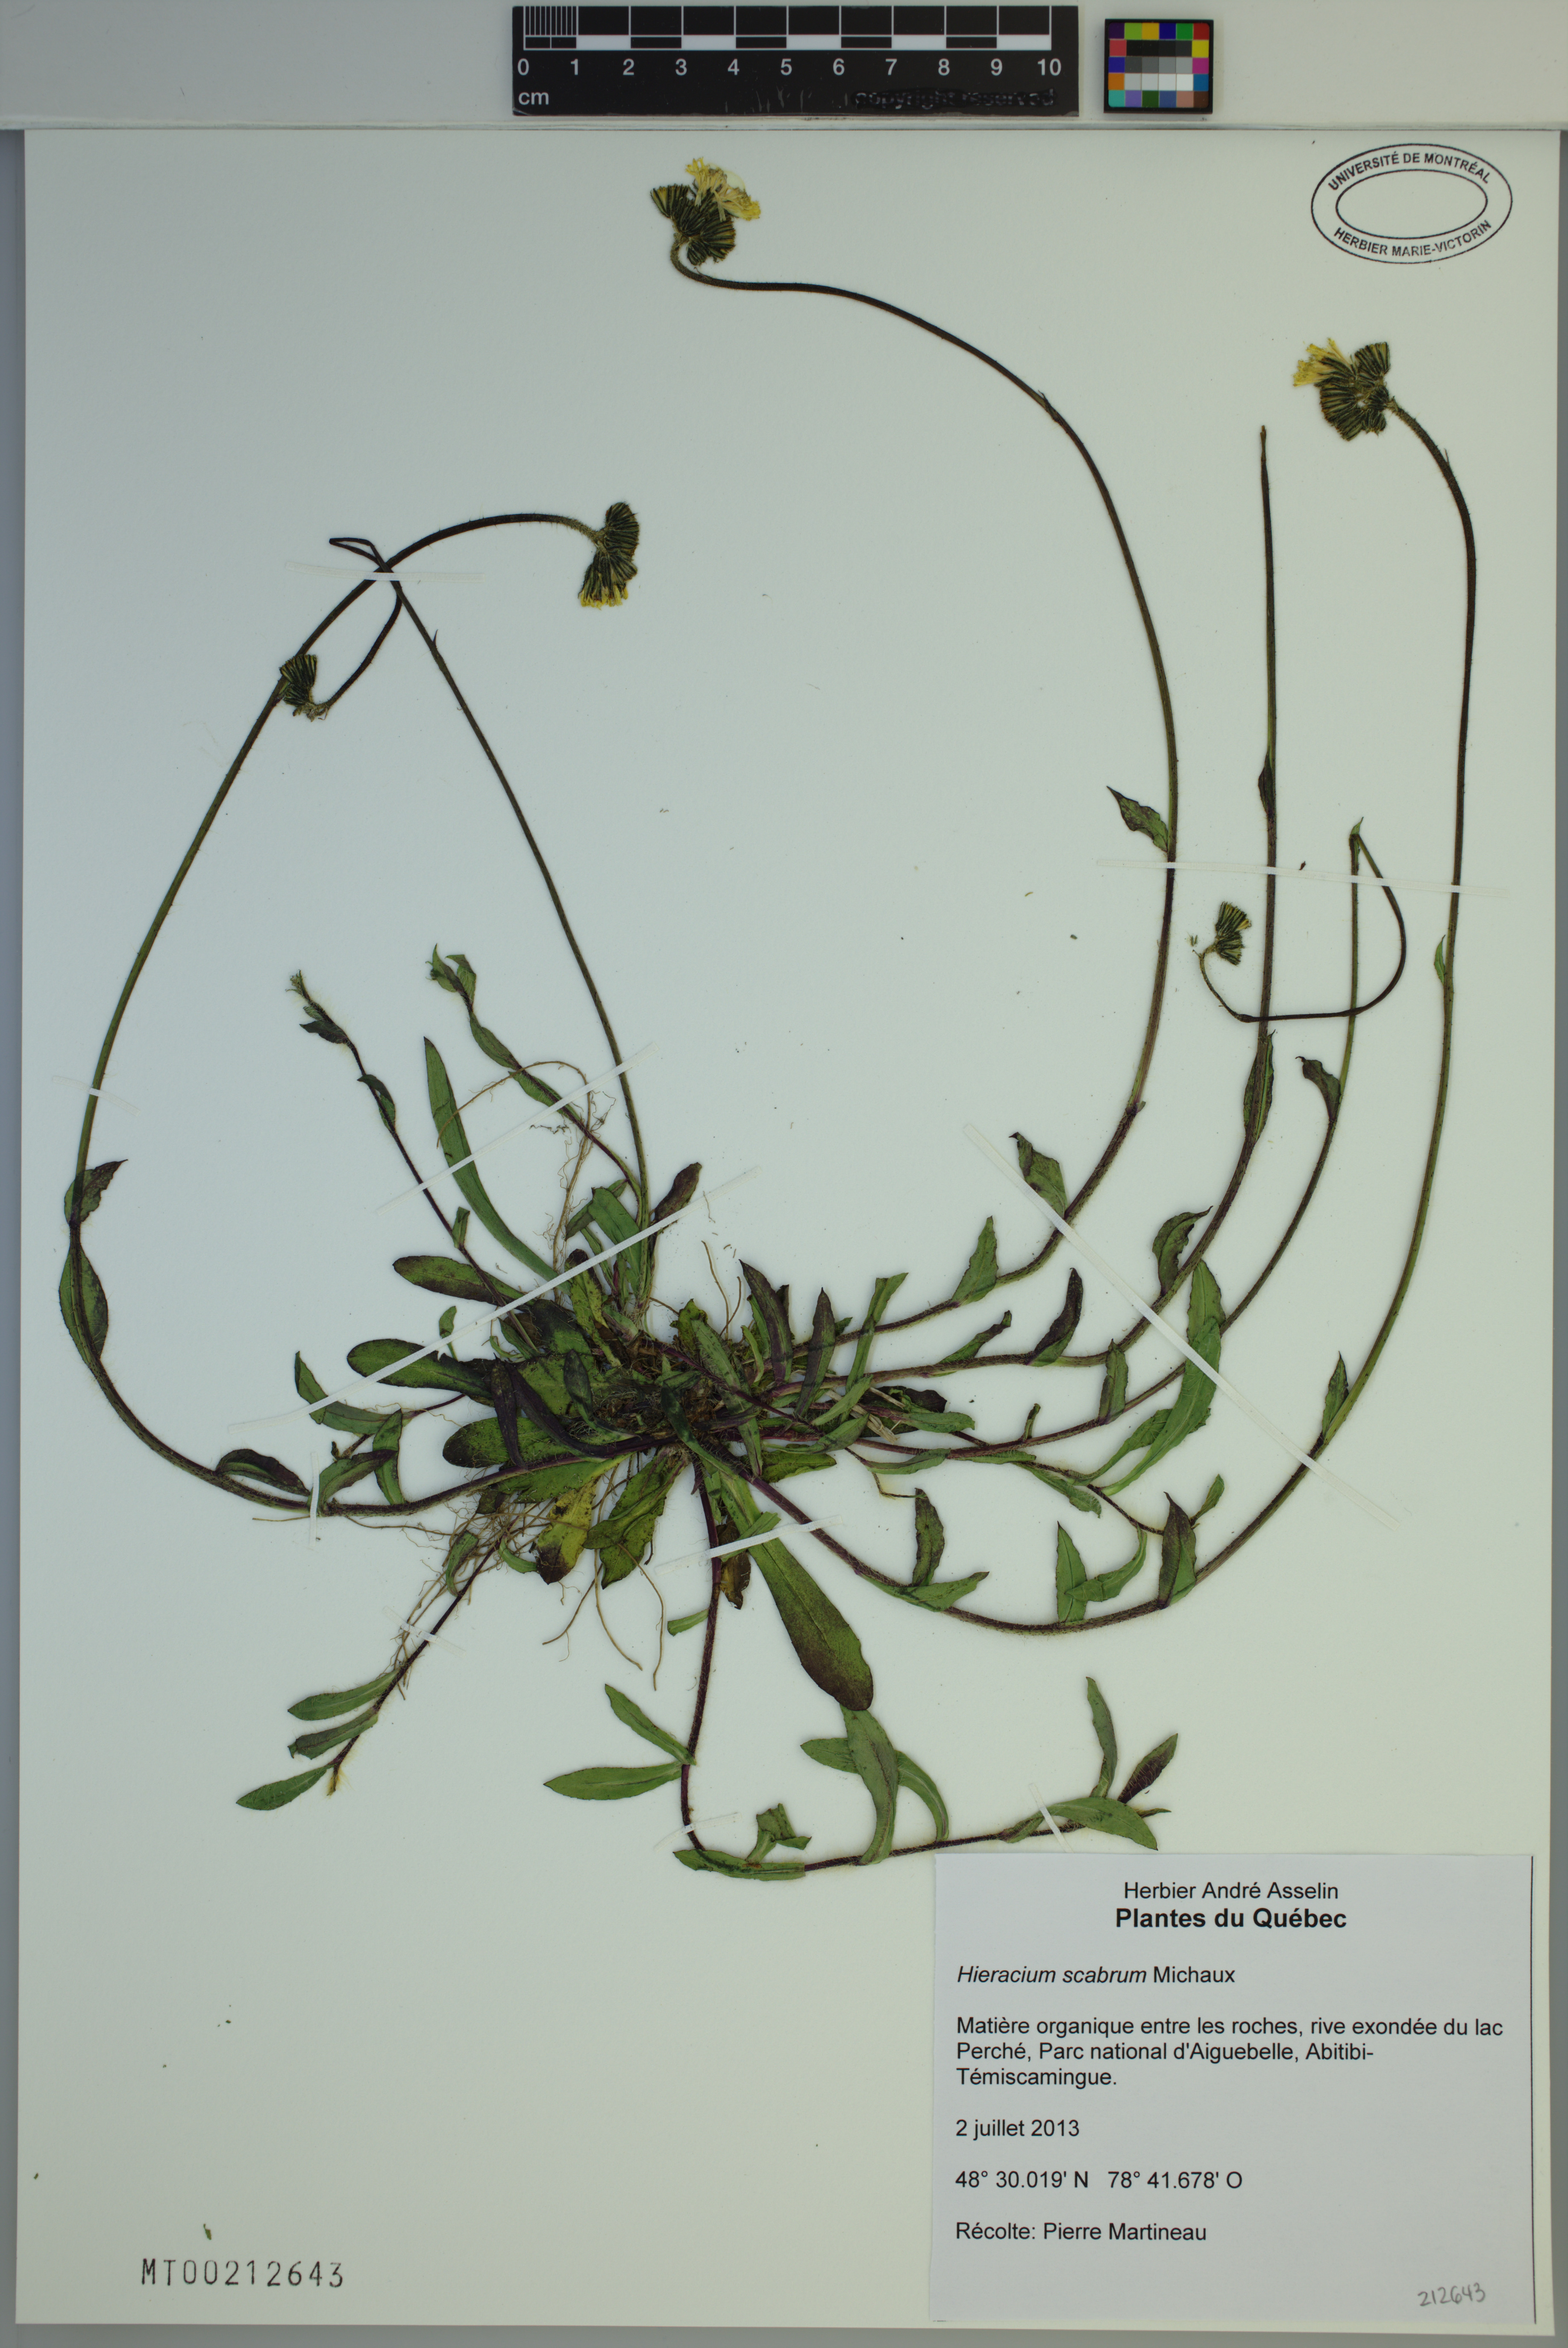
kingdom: Plantae
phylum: Tracheophyta
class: Magnoliopsida
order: Asterales
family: Asteraceae
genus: Hieracium
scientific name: Hieracium scabrum
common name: Rough hawkweed
